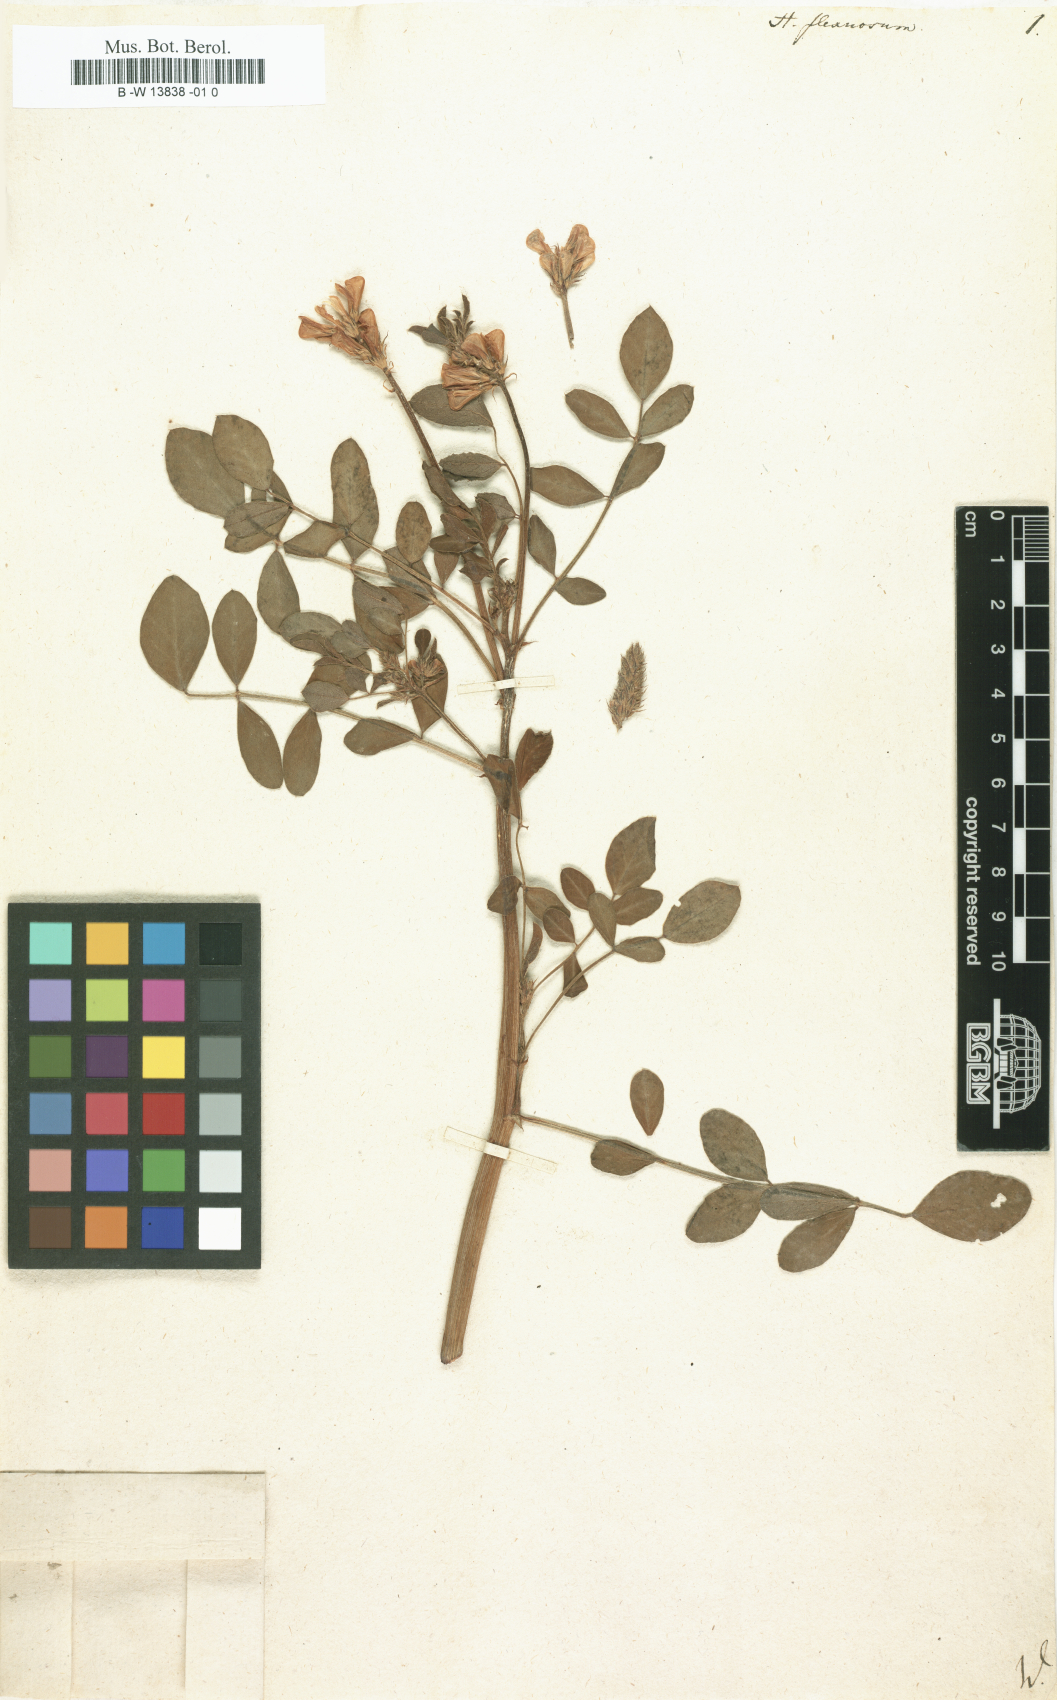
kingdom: Plantae
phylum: Tracheophyta
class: Magnoliopsida
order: Fabales
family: Fabaceae
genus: Hedysarum
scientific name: Hedysarum anomalum
